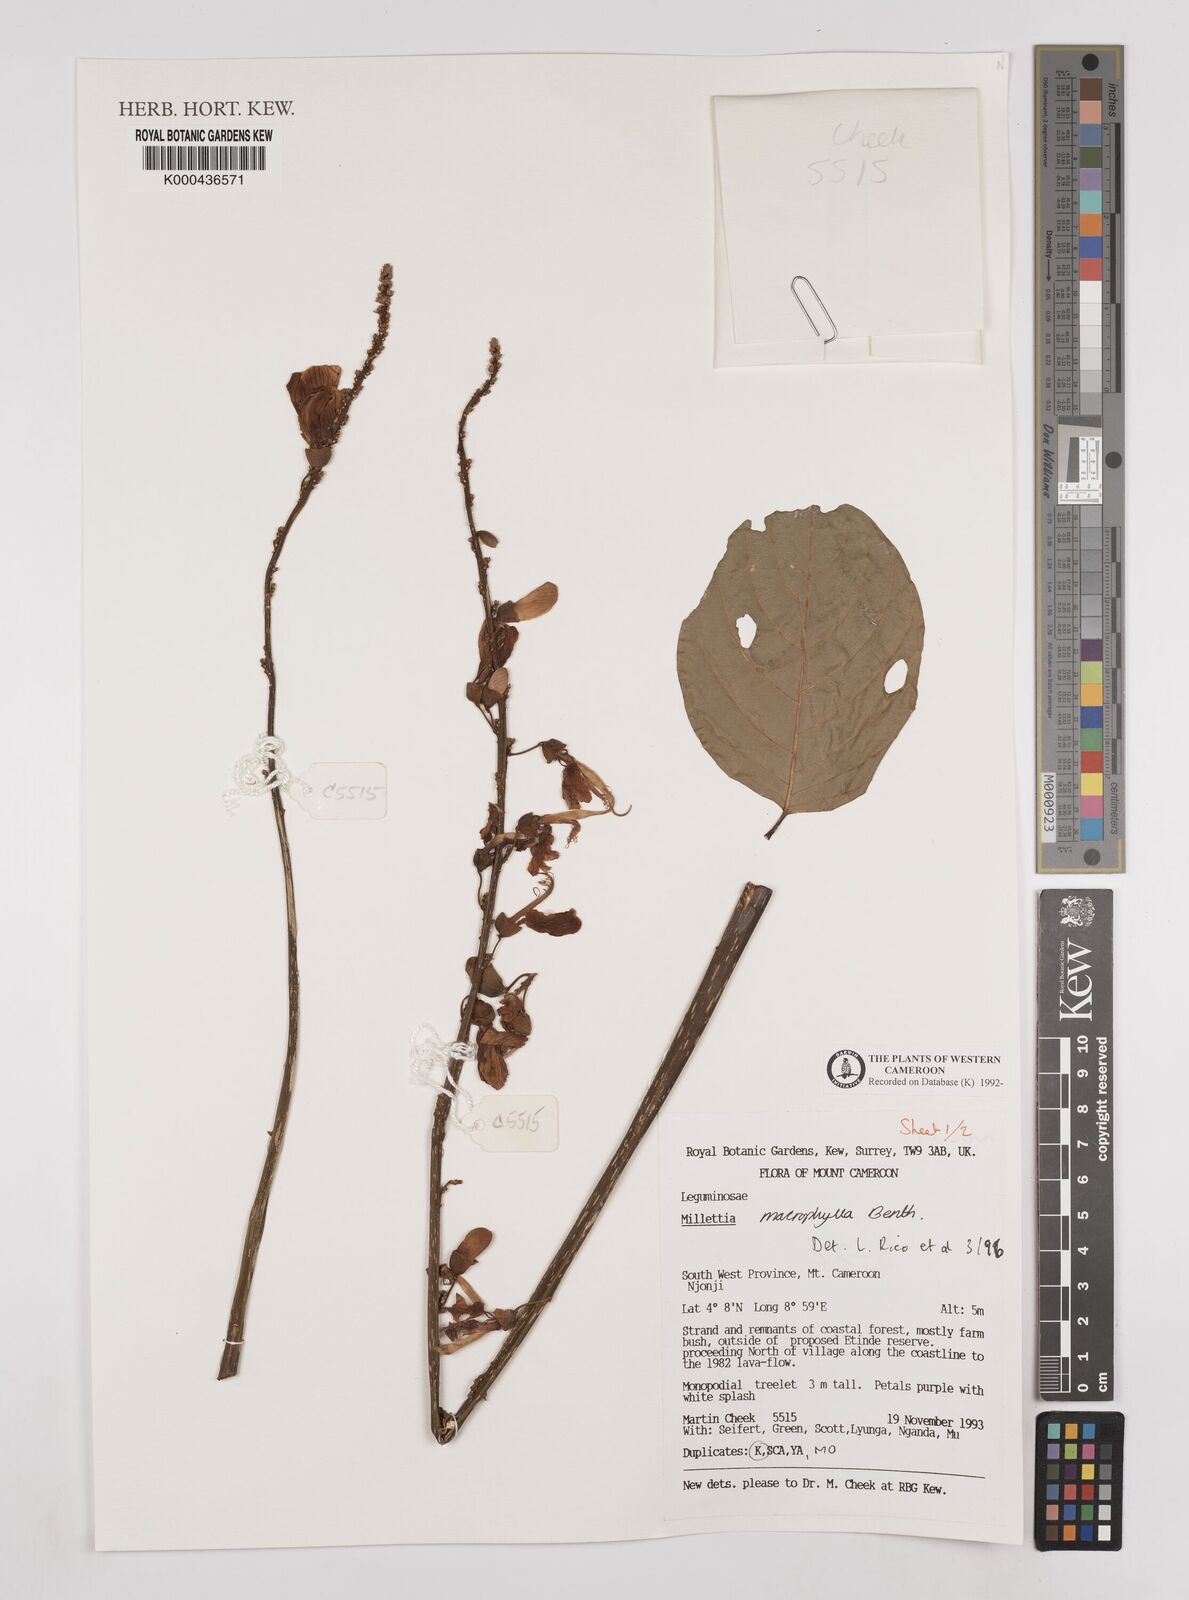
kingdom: Plantae
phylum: Tracheophyta
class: Magnoliopsida
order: Fabales
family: Fabaceae
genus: Millettia
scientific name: Millettia macrophylla
